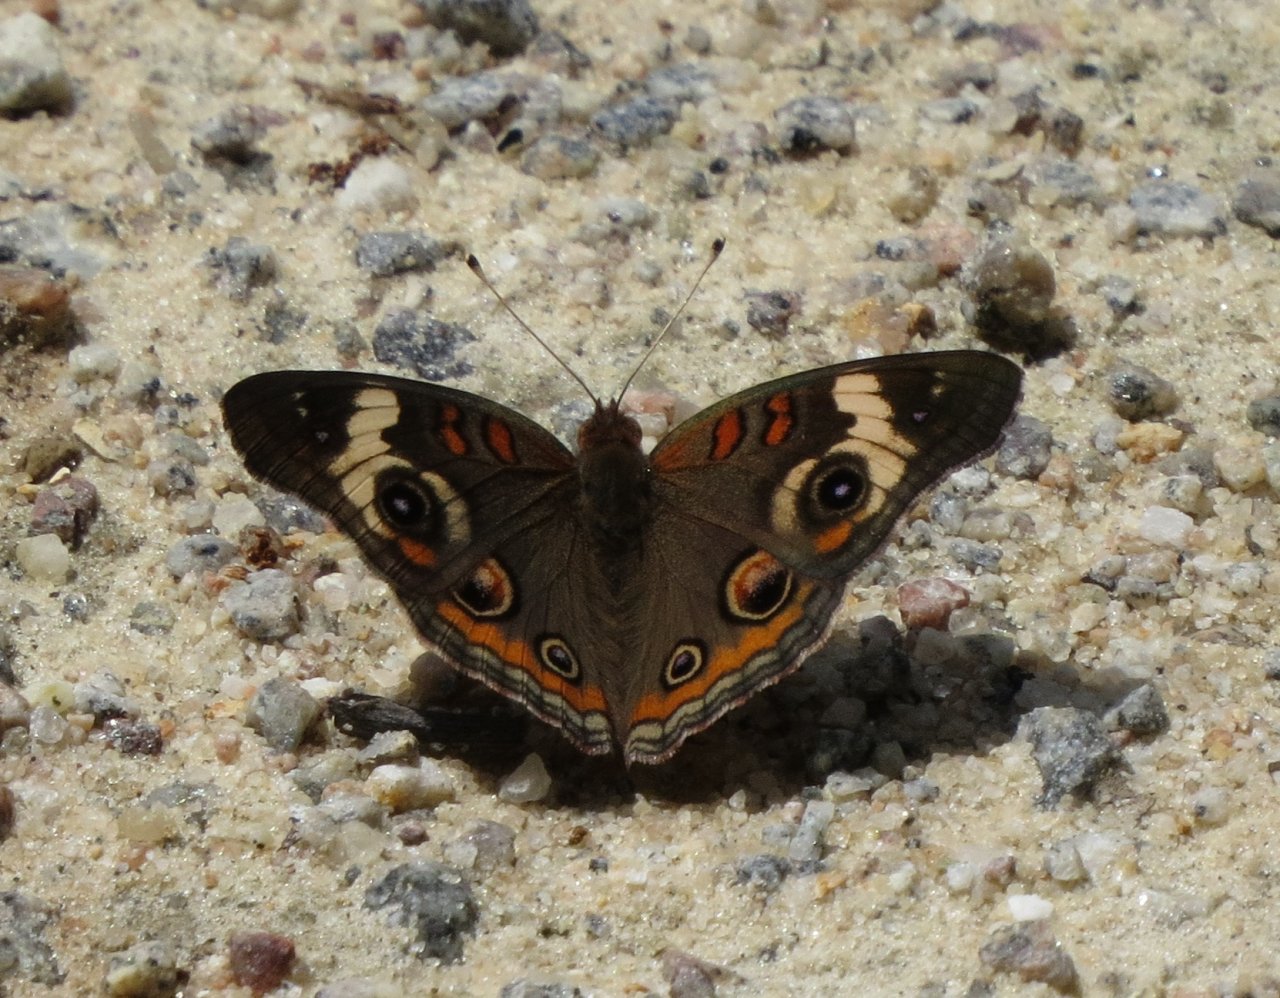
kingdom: Animalia
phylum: Arthropoda
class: Insecta
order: Lepidoptera
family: Nymphalidae
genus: Junonia
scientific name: Junonia coenia
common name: Common Buckeye
